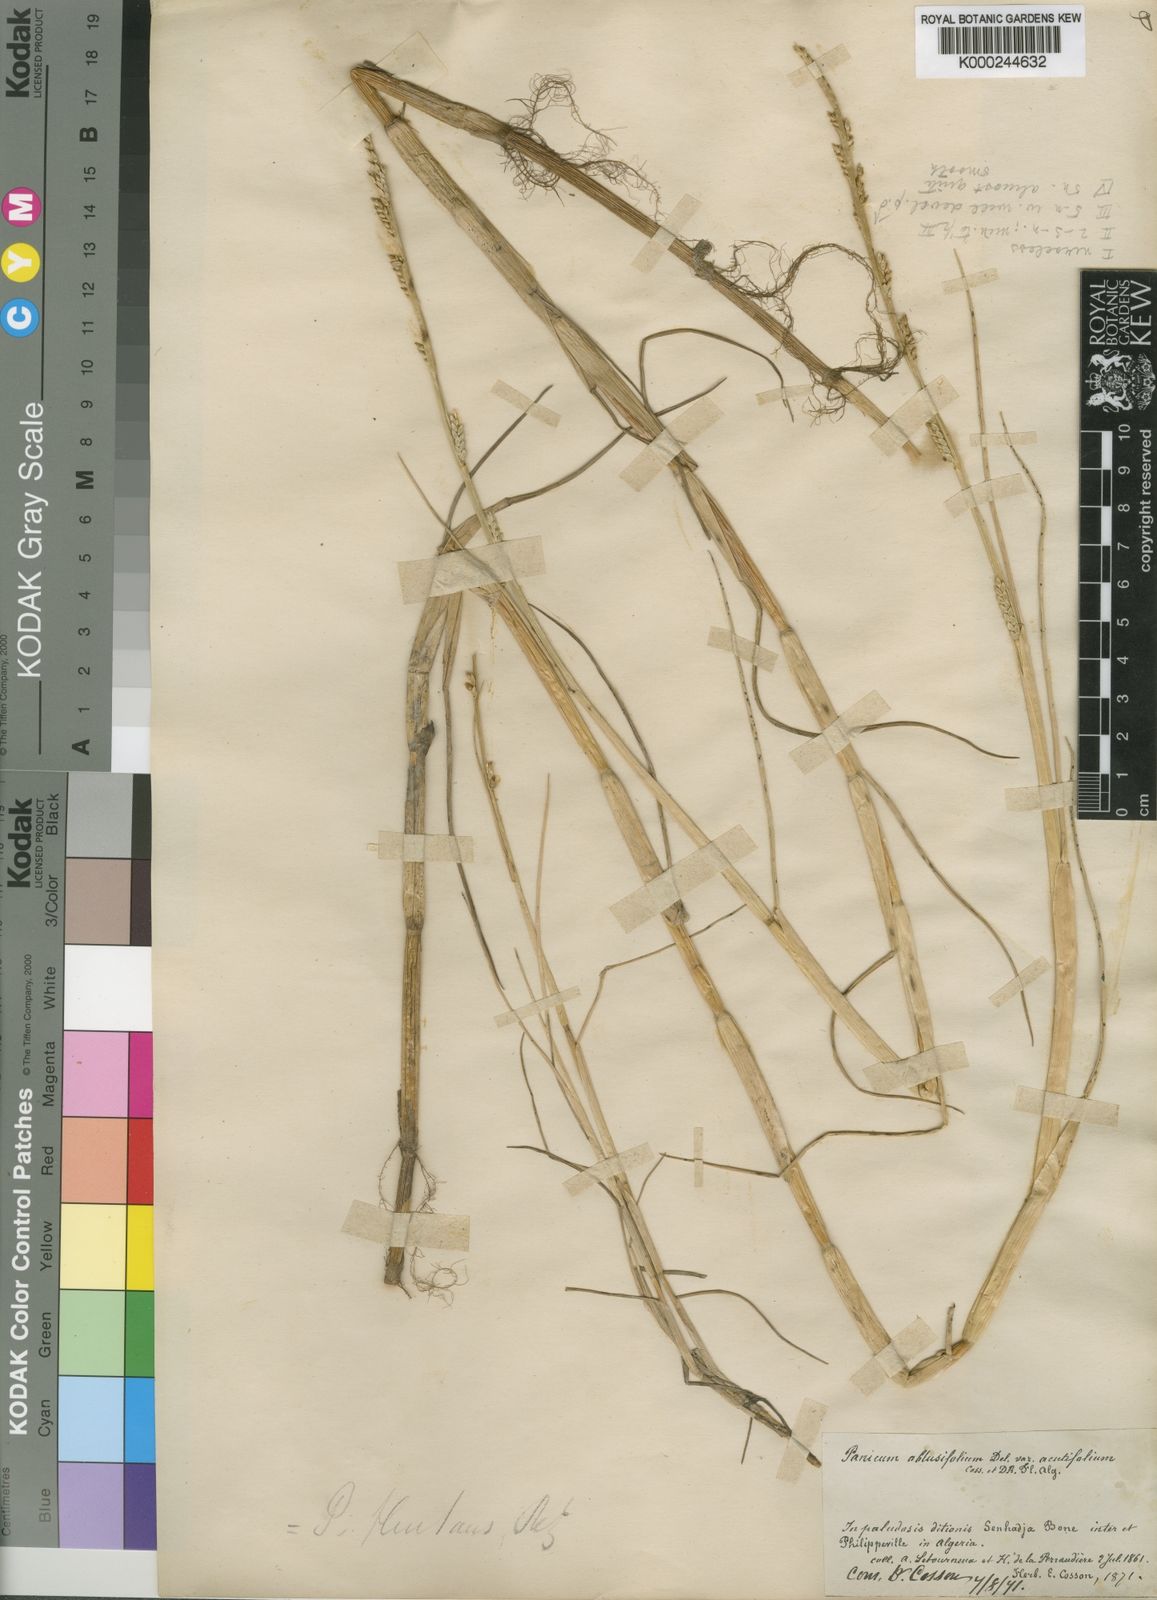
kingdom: Plantae
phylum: Tracheophyta
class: Liliopsida
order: Poales
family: Poaceae
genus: Setaria
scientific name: Setaria obtusifolia
